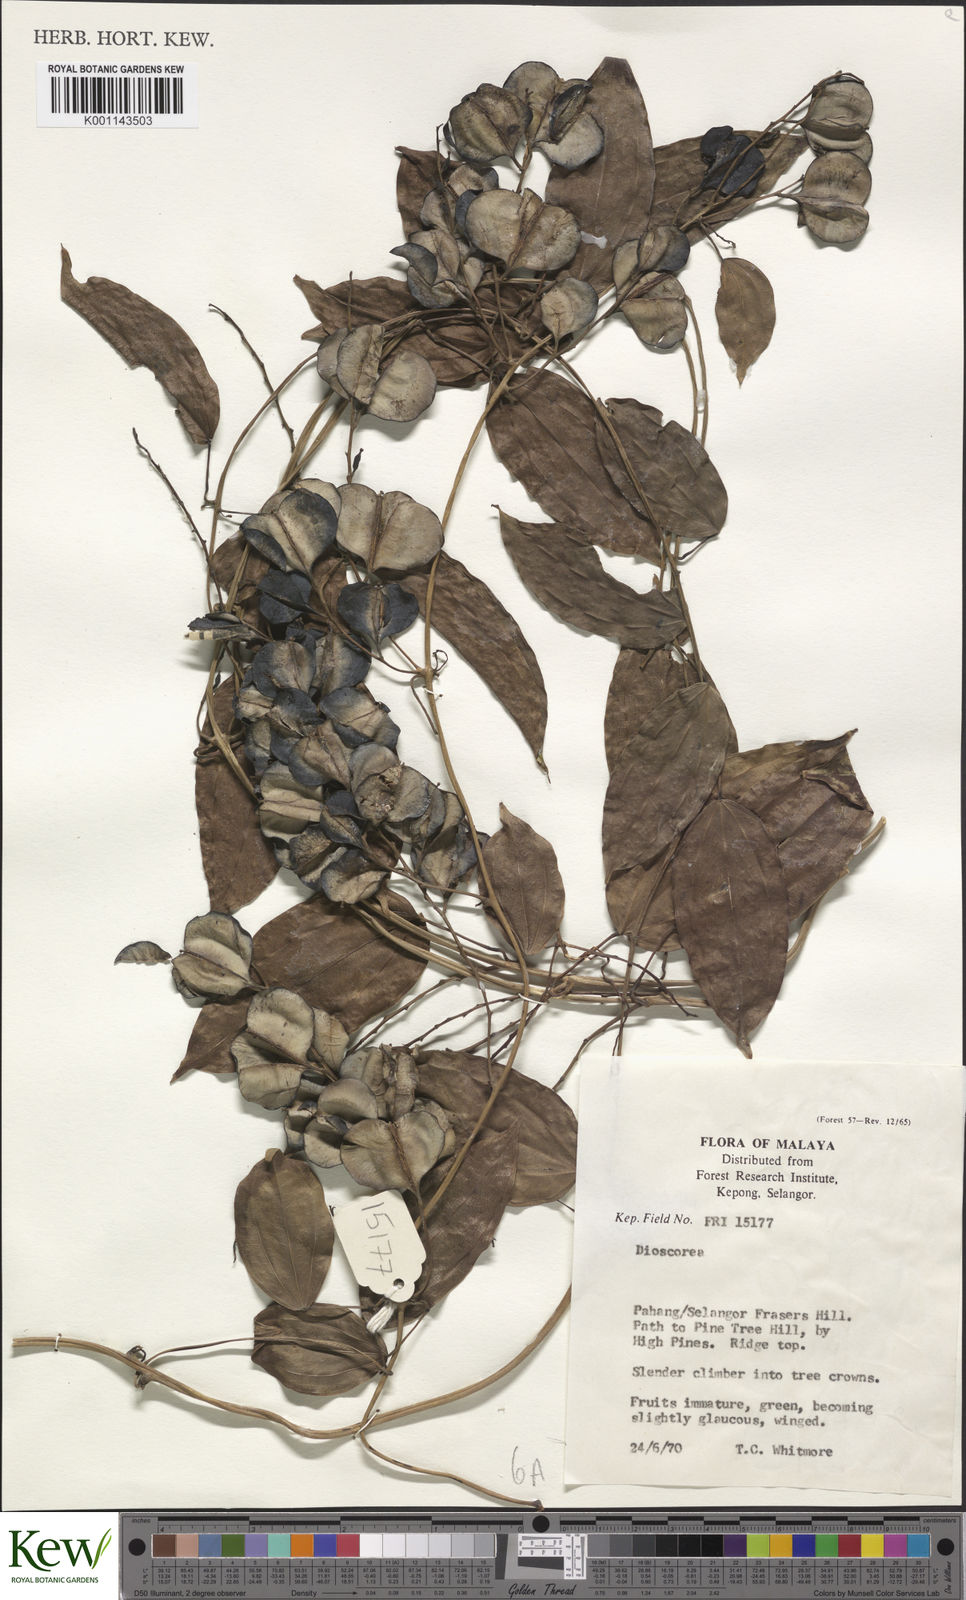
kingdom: Plantae
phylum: Tracheophyta
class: Liliopsida
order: Dioscoreales
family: Dioscoreaceae
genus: Dioscorea
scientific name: Dioscorea
